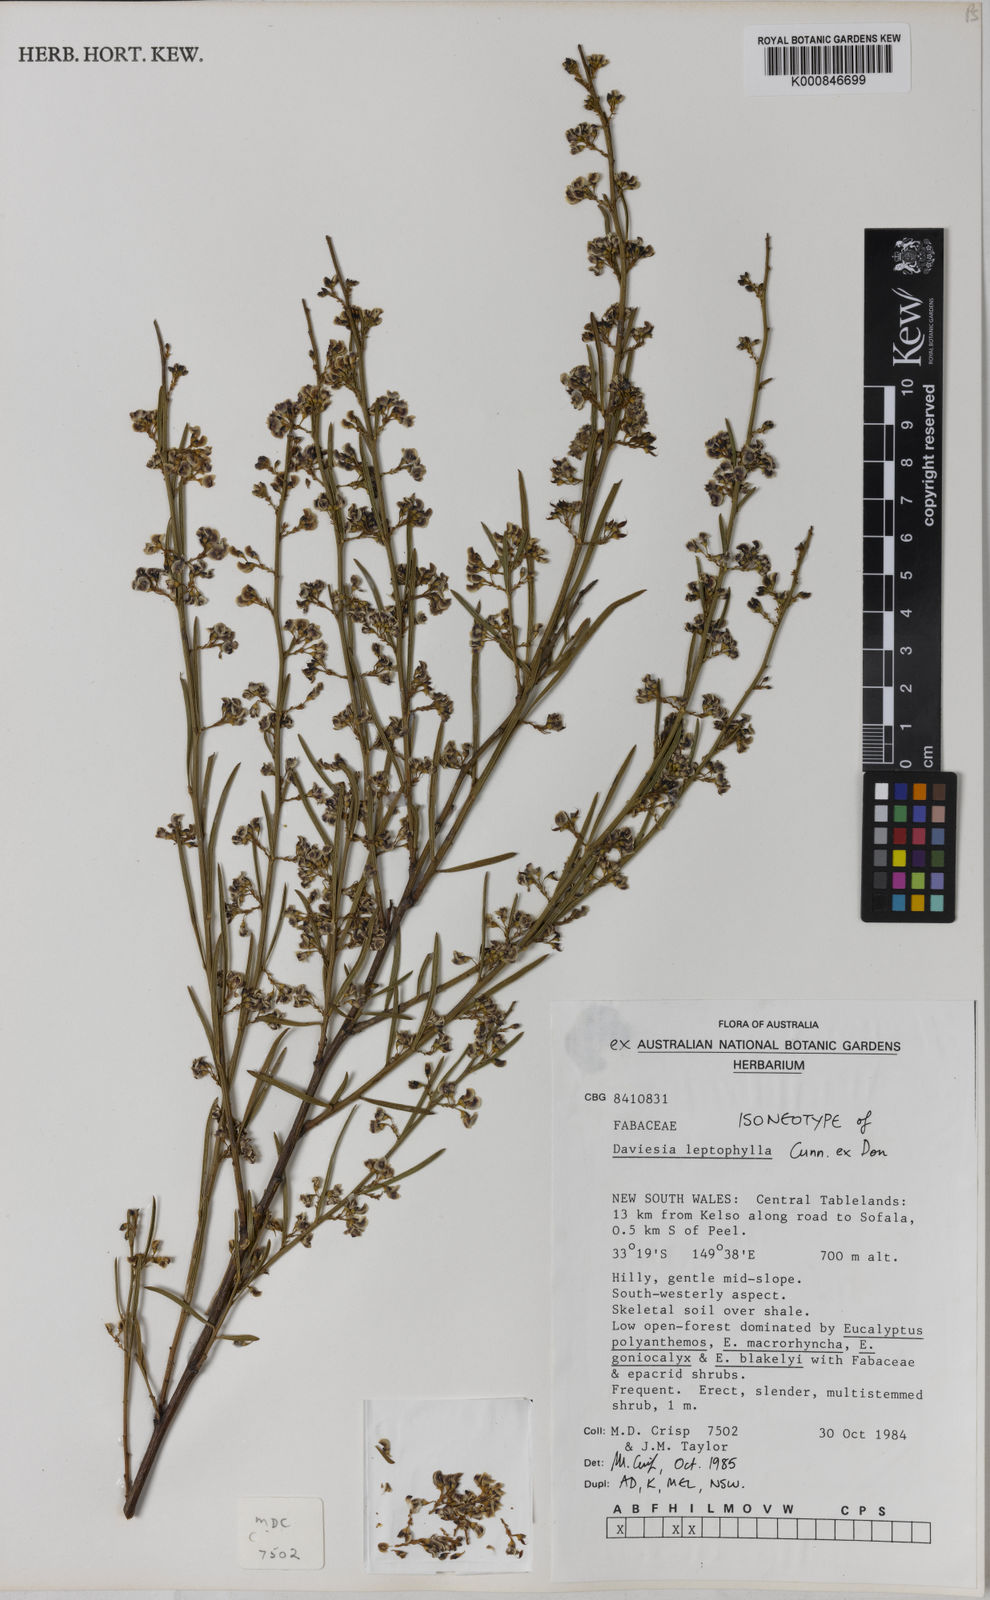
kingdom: Plantae
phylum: Tracheophyta
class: Magnoliopsida
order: Fabales
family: Fabaceae
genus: Daviesia
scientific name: Daviesia leptophylla
